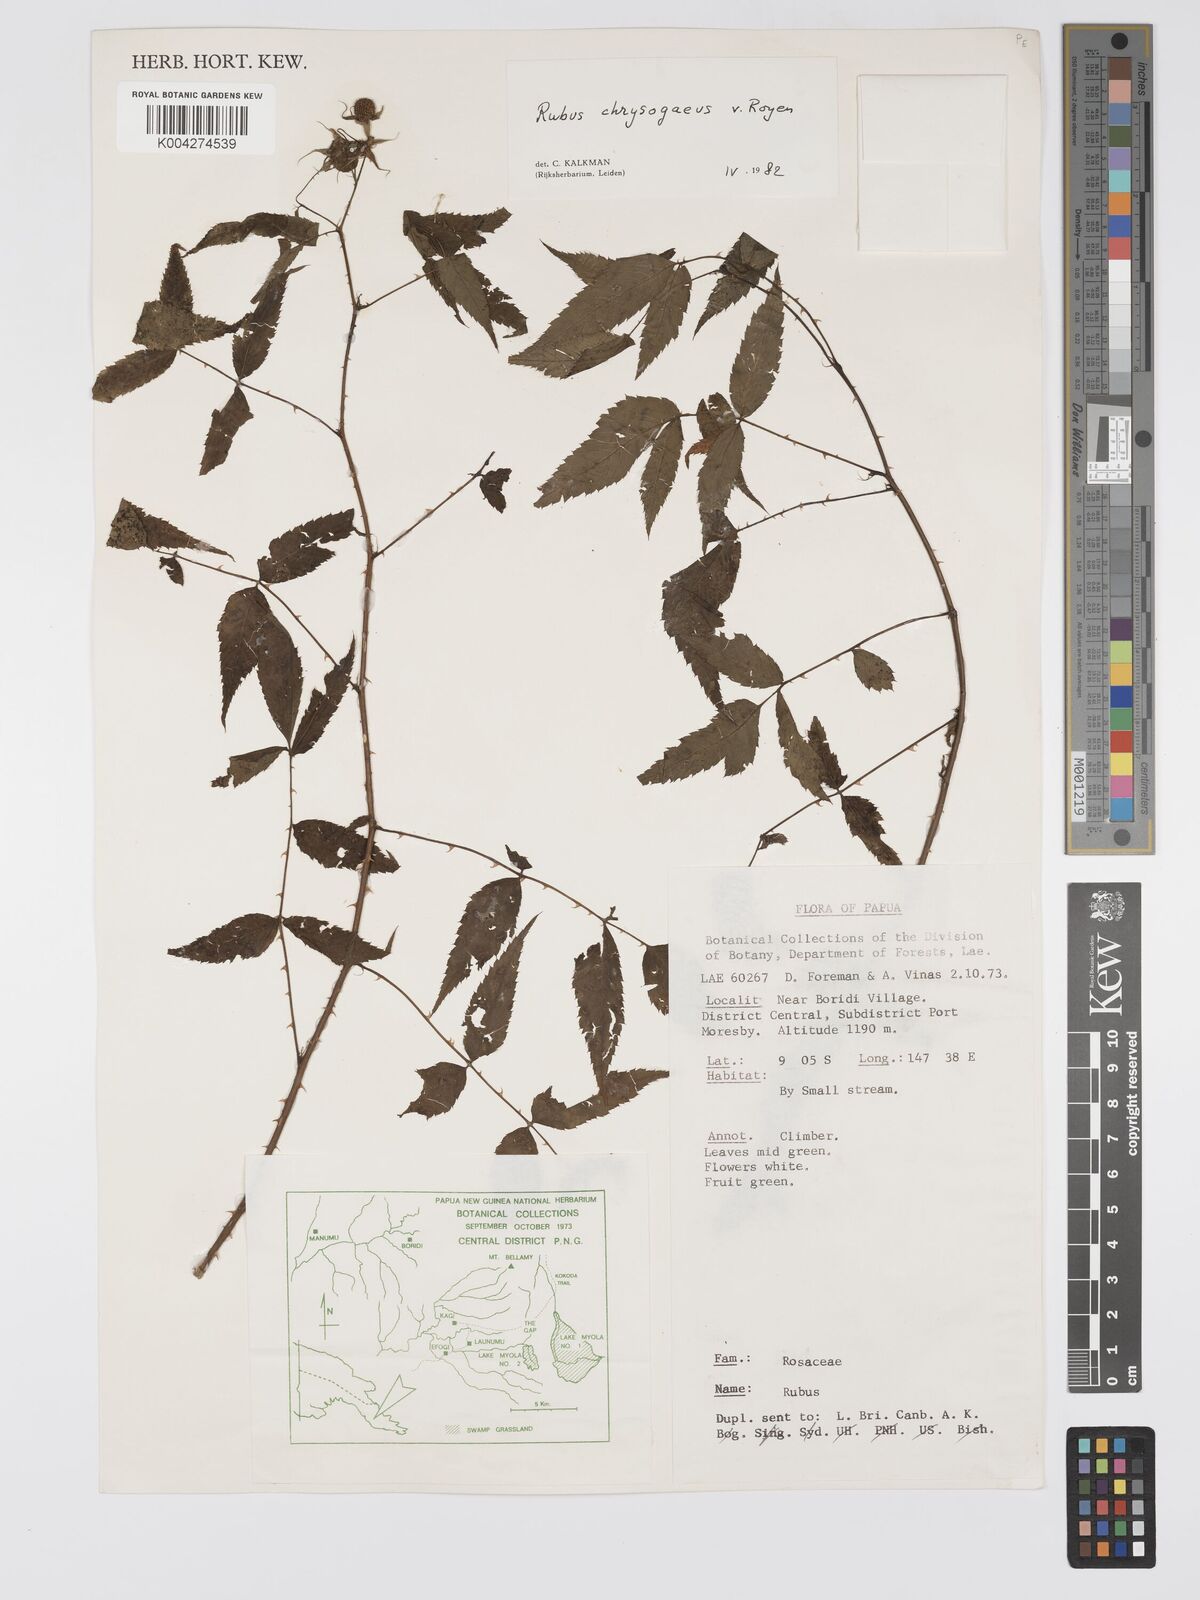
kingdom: Plantae
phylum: Tracheophyta
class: Magnoliopsida
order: Rosales
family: Rosaceae
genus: Rubus
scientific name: Rubus chrysogaeus
